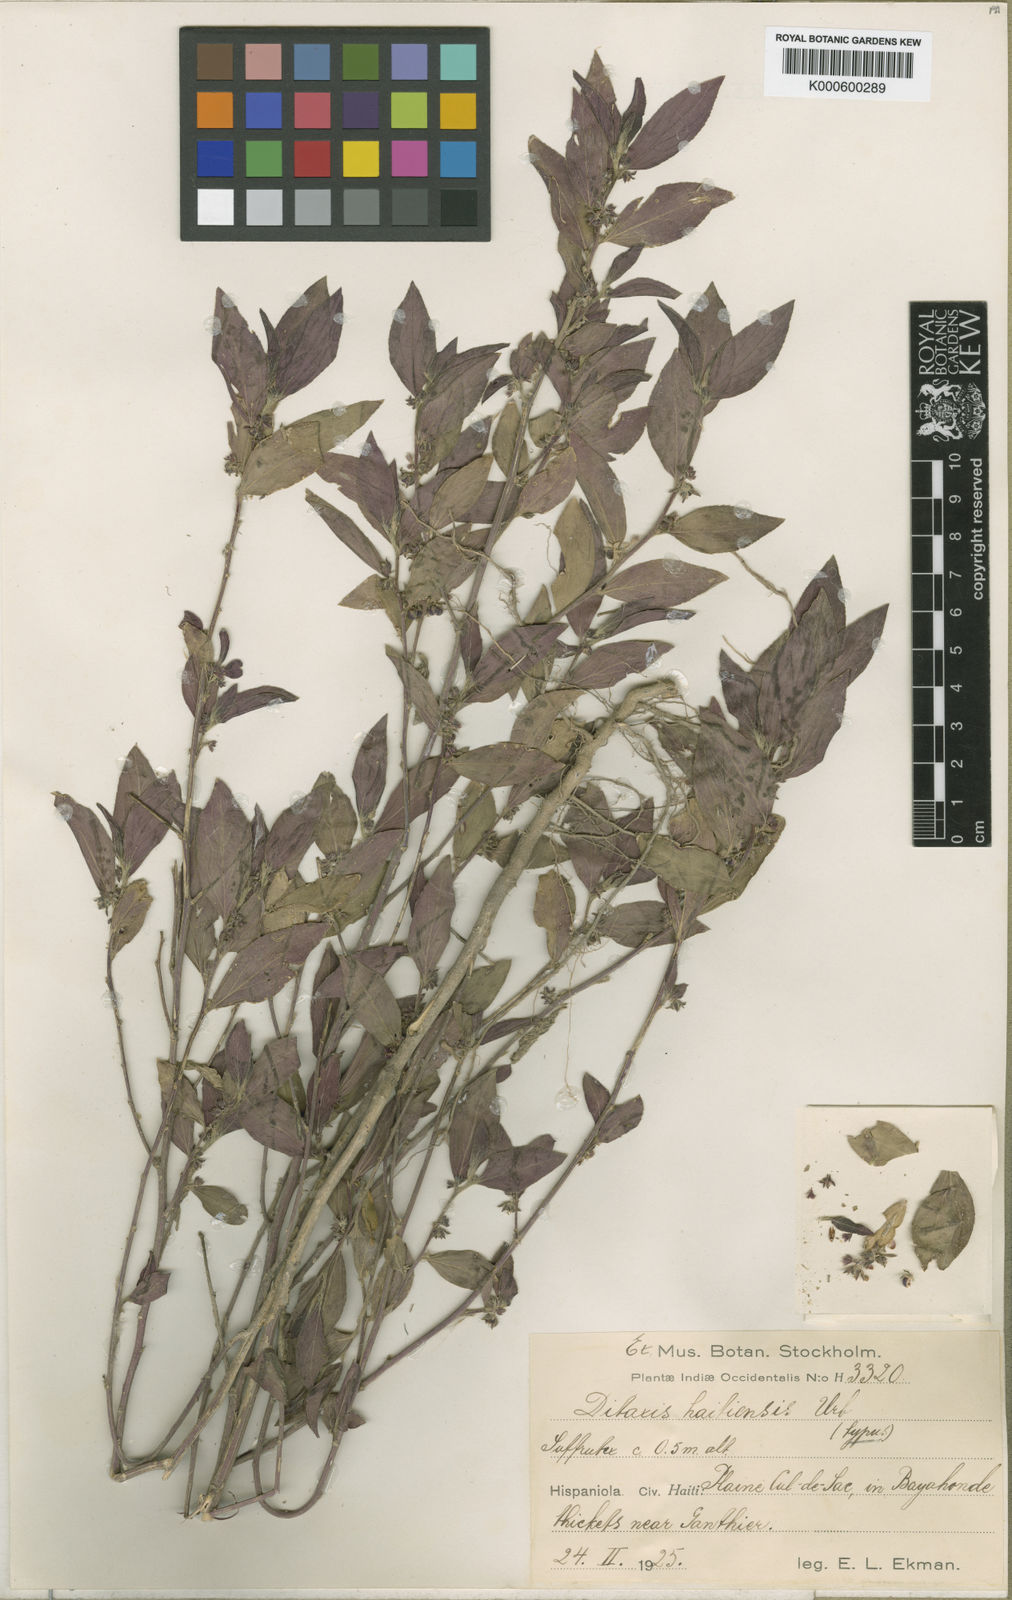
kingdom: Plantae
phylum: Tracheophyta
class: Magnoliopsida
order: Malpighiales
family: Euphorbiaceae
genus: Ditaxis
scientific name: Ditaxis haitiensis
